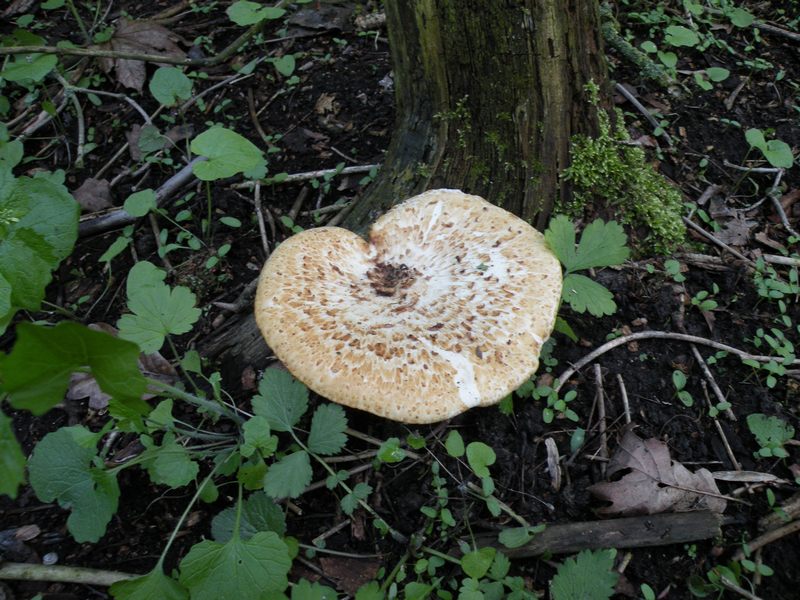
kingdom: Fungi
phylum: Basidiomycota
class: Agaricomycetes
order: Polyporales
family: Polyporaceae
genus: Cerioporus
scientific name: Cerioporus squamosus
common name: skællet stilkporesvamp
